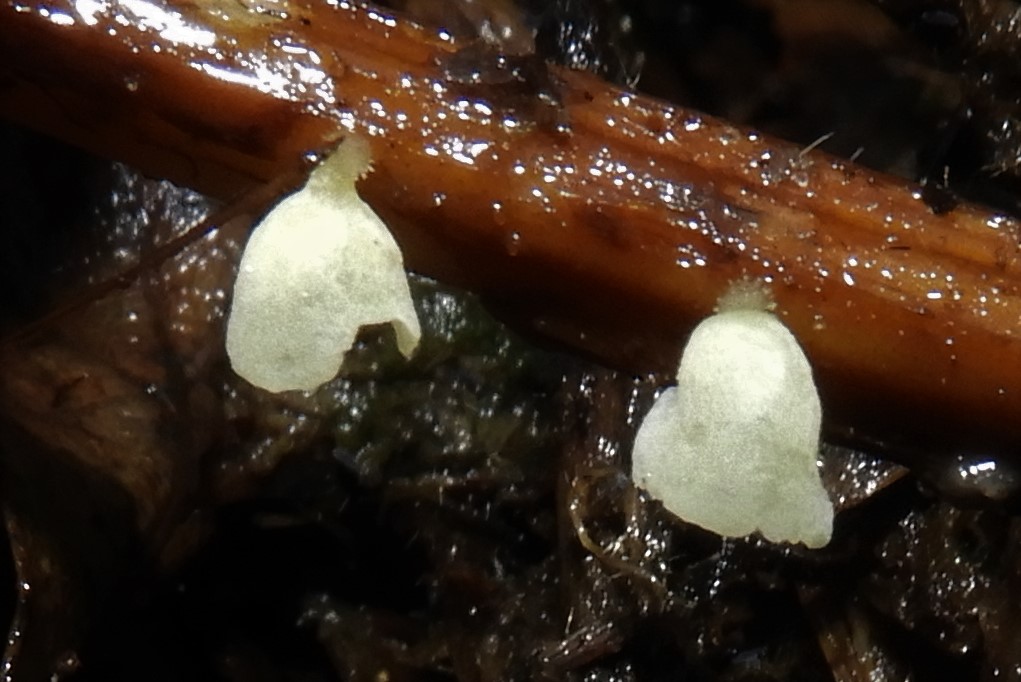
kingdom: Fungi
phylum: Basidiomycota
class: Agaricomycetes
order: Agaricales
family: Marasmiaceae
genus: Calyptella
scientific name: Calyptella campanula
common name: gul nældehue
